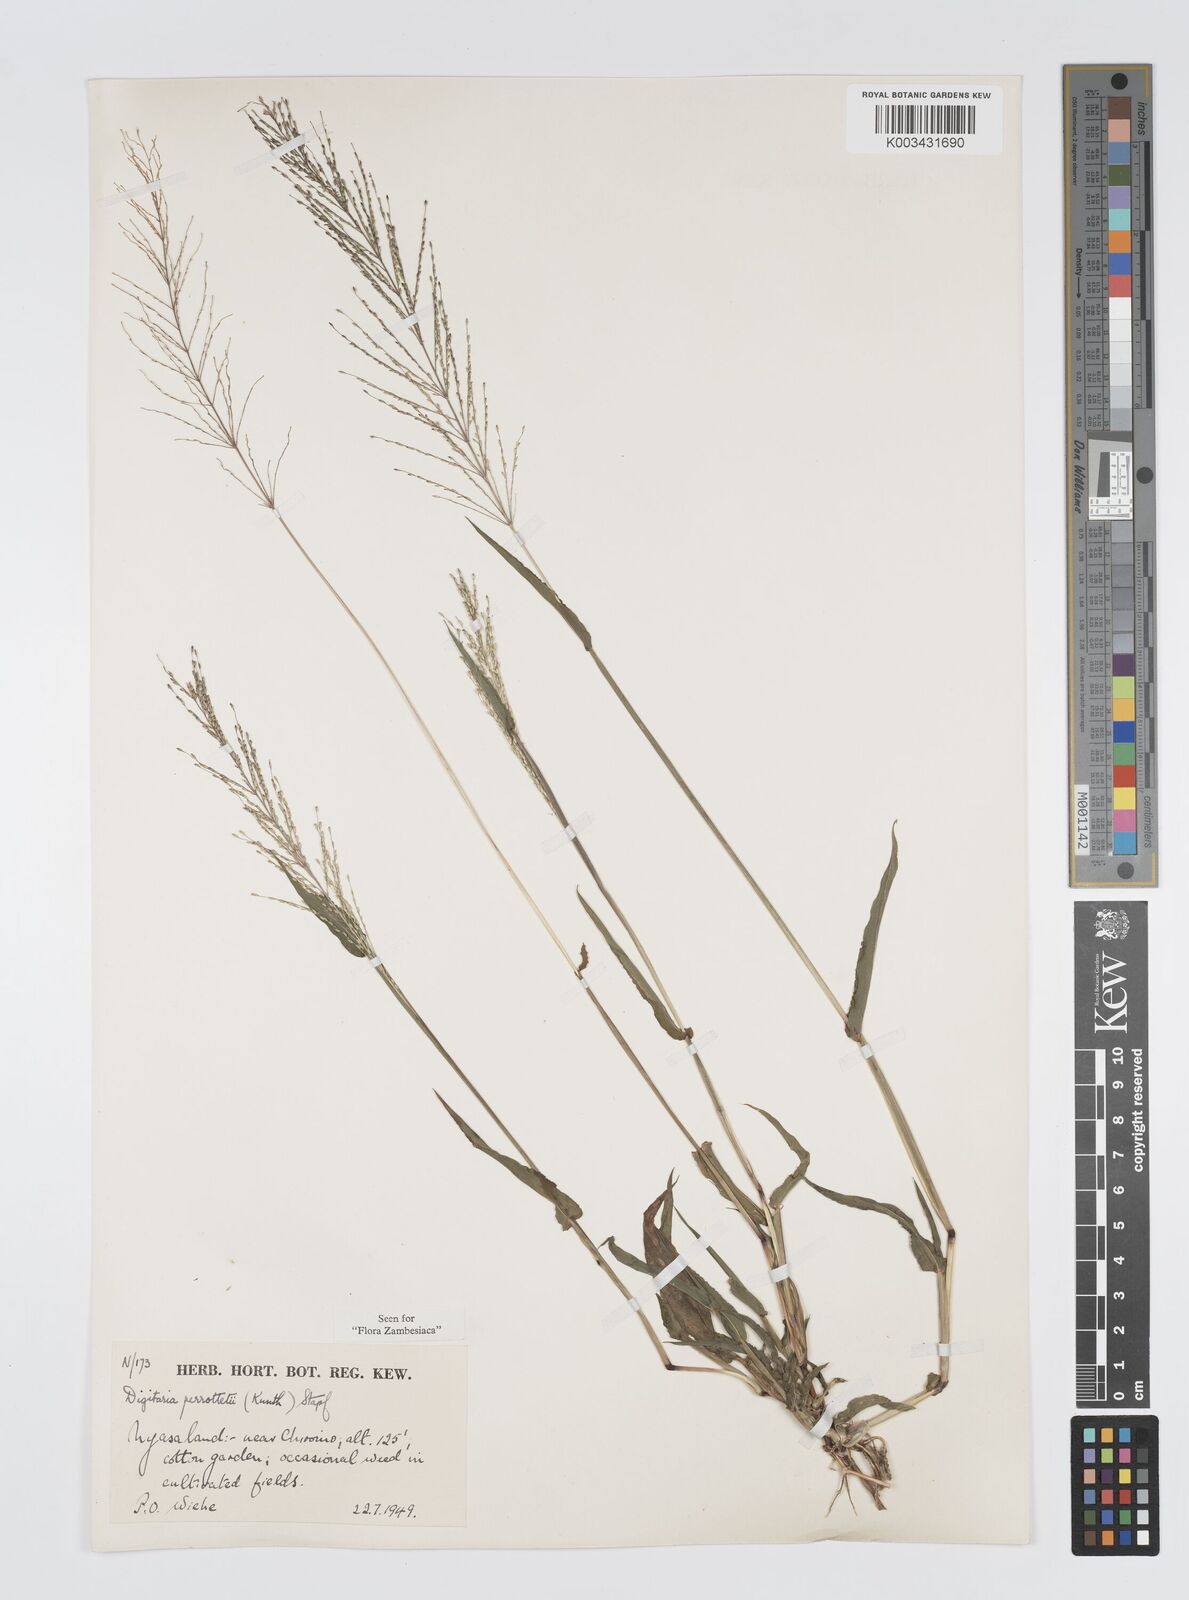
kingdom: Plantae
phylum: Tracheophyta
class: Liliopsida
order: Poales
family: Poaceae
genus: Digitaria
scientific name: Digitaria perrottetii
